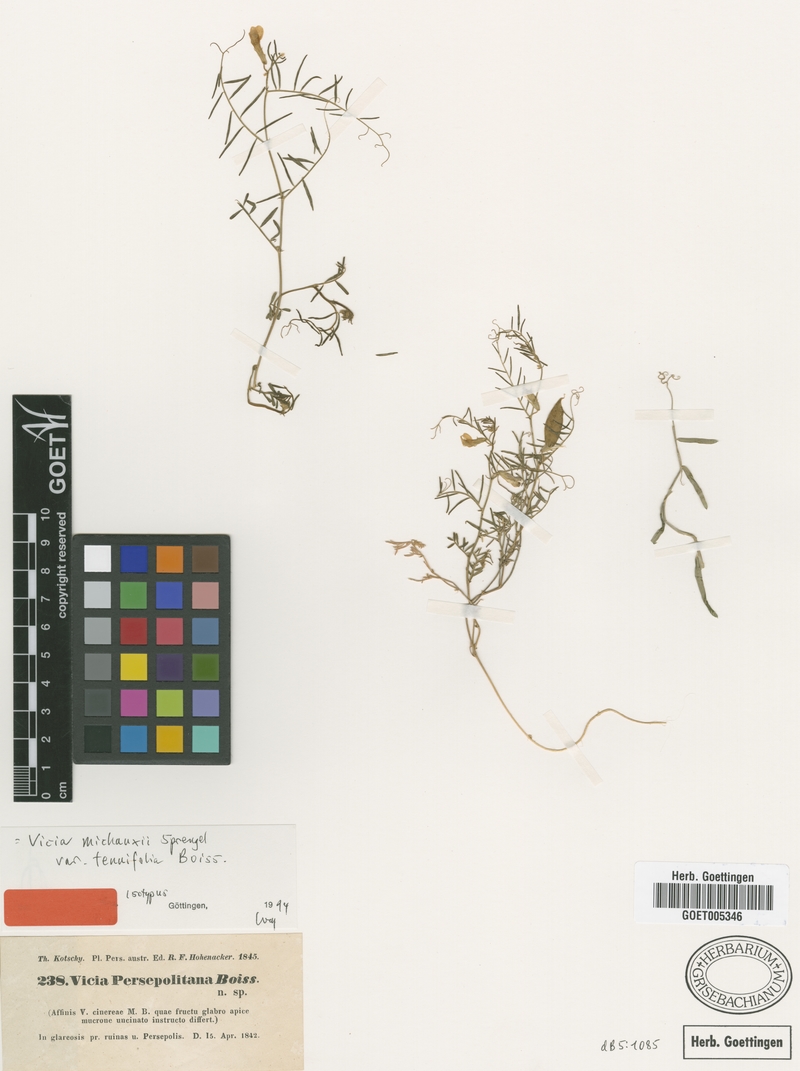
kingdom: Plantae
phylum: Tracheophyta
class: Magnoliopsida
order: Fabales
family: Fabaceae
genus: Vicia
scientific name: Vicia michauxii
